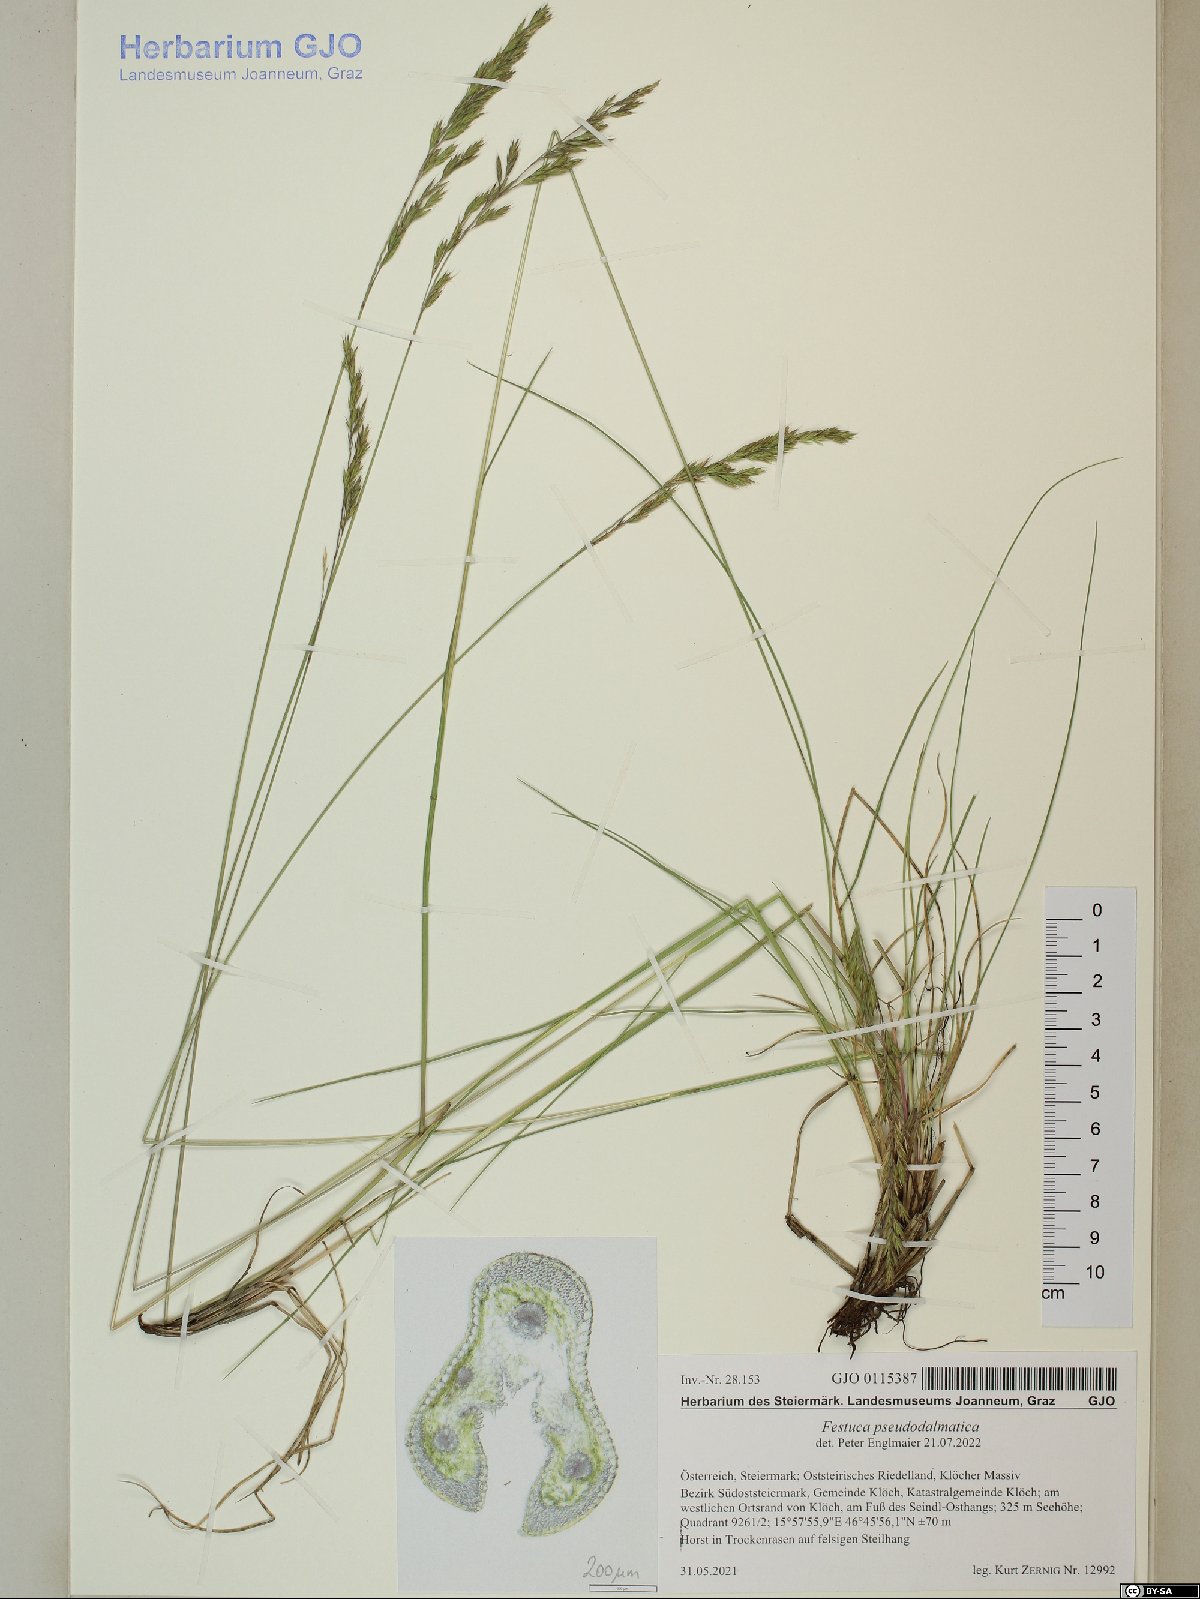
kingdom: Plantae
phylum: Tracheophyta
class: Liliopsida
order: Poales
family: Poaceae
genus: Festuca
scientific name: Festuca pseudodalmatica
